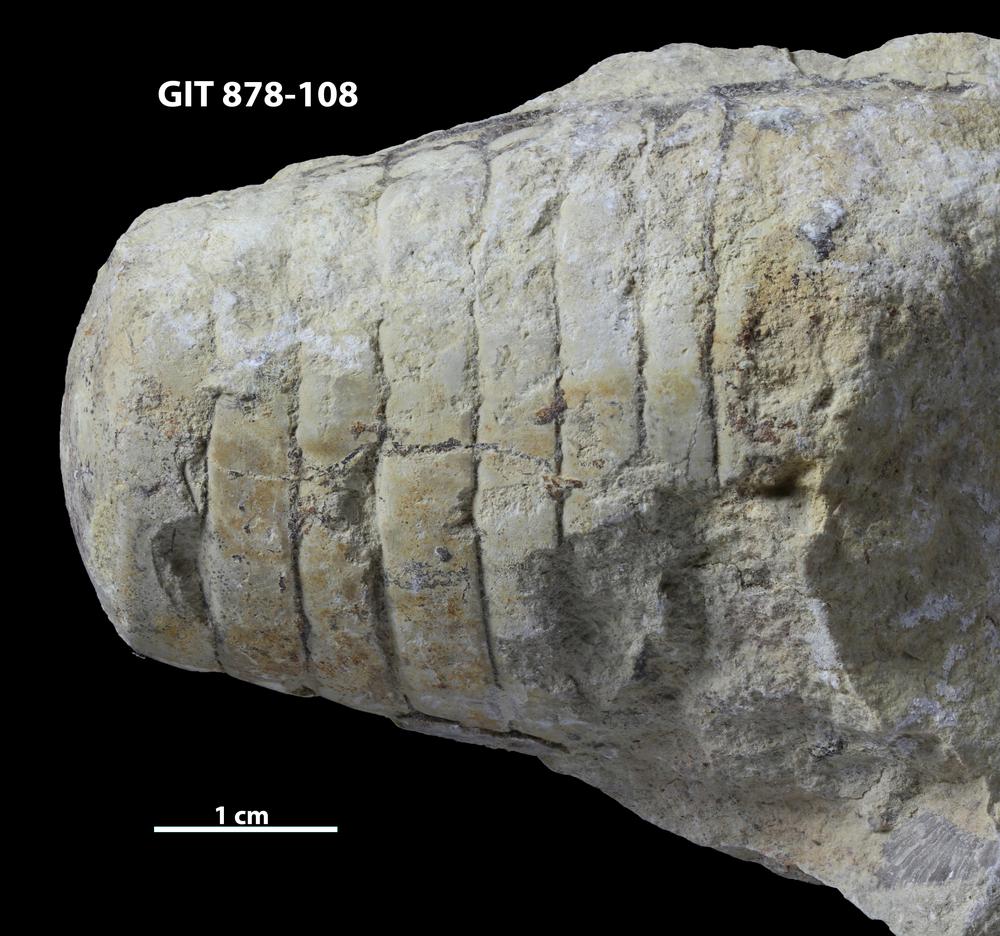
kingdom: Animalia
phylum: Mollusca
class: Cephalopoda
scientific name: Cephalopoda
